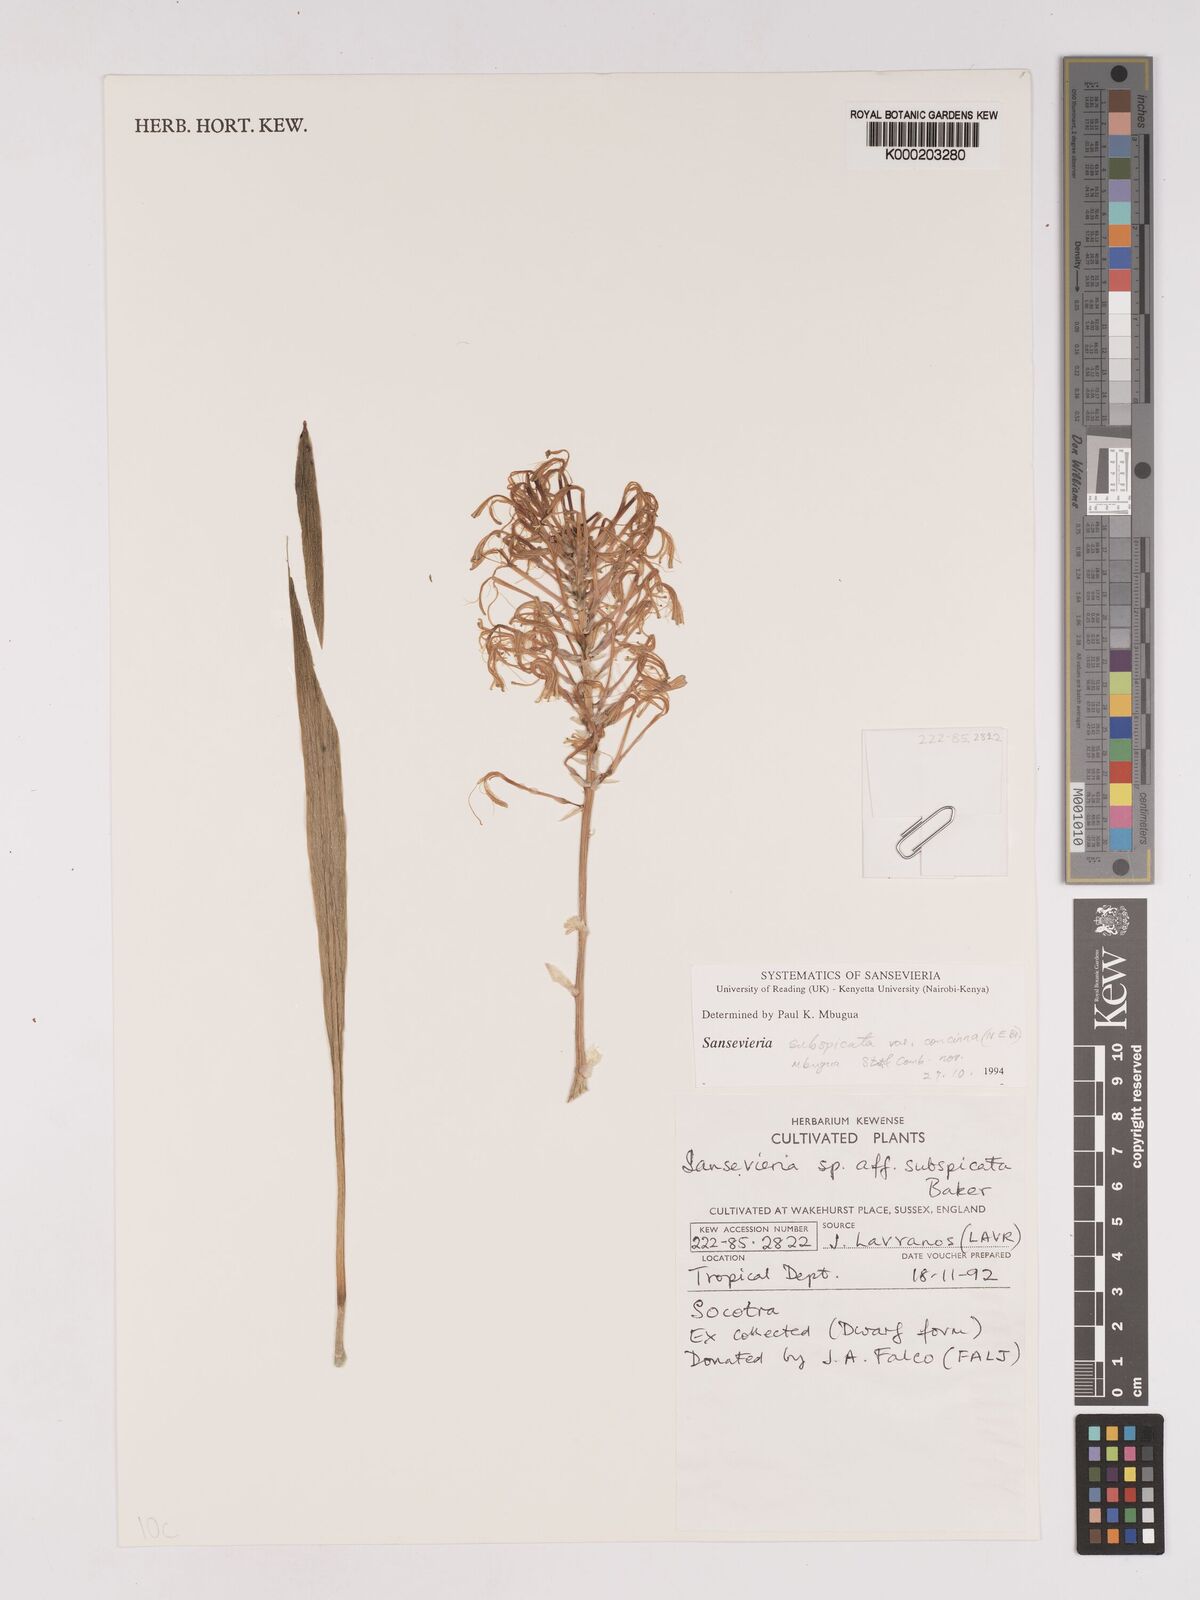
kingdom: Plantae
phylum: Tracheophyta
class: Liliopsida
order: Asparagales
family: Asparagaceae
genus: Dracaena
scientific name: Dracaena subspicata
